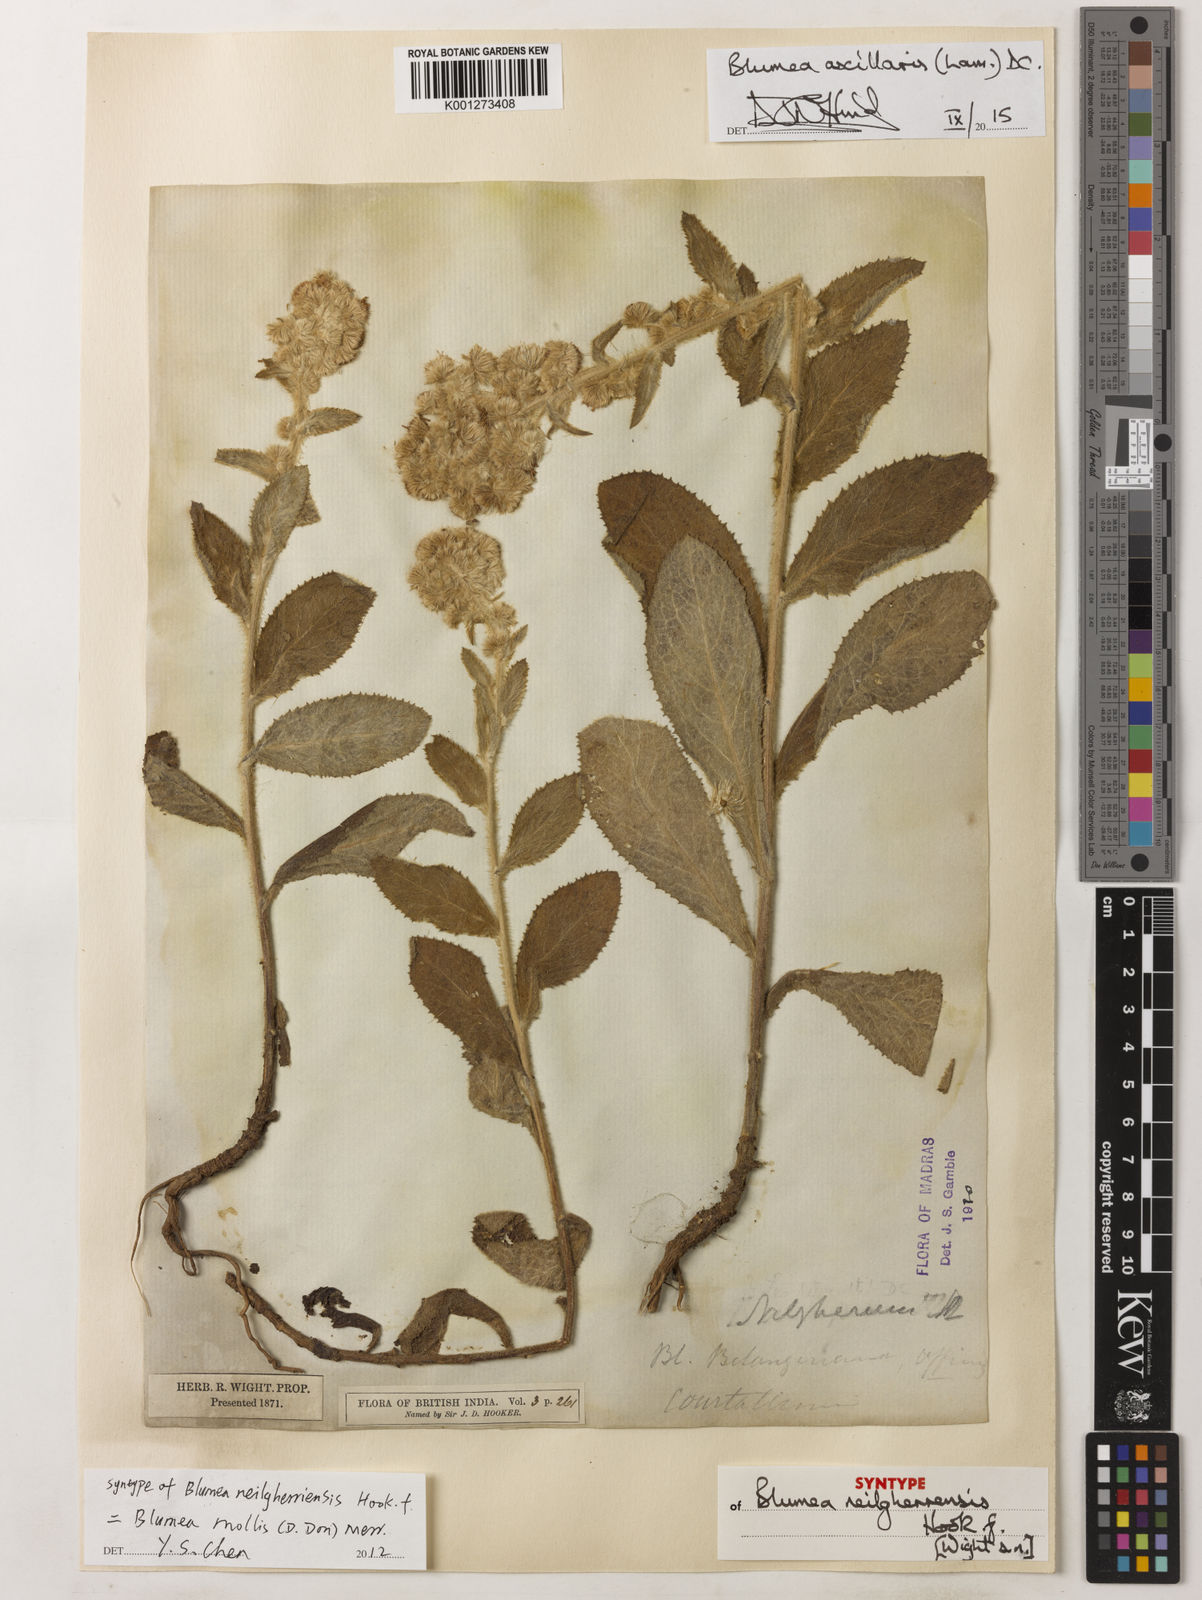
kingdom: Plantae
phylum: Tracheophyta
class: Magnoliopsida
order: Asterales
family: Asteraceae
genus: Blumea
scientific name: Blumea axillaris
